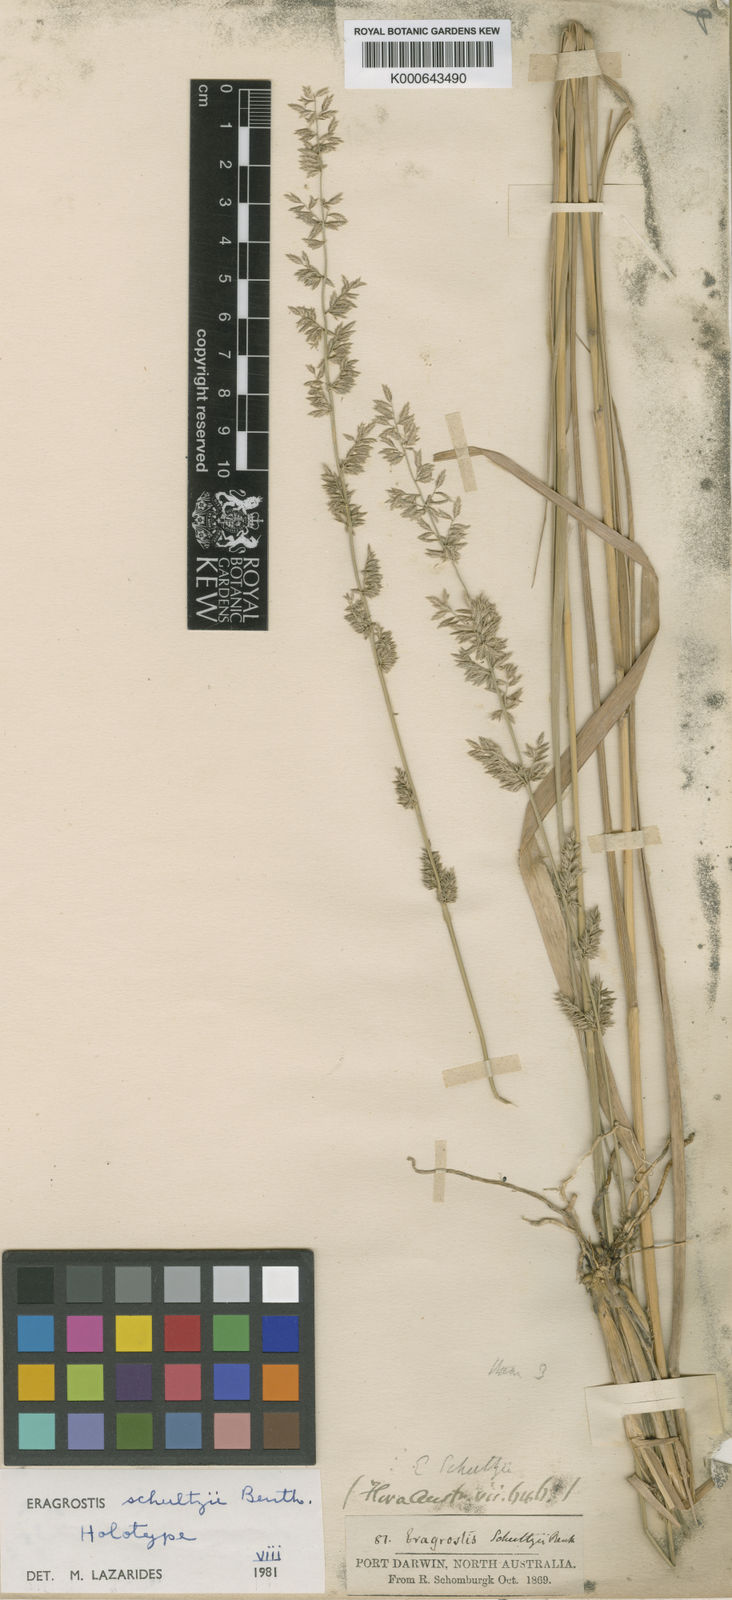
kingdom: Plantae
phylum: Tracheophyta
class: Liliopsida
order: Poales
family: Poaceae
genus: Eragrostis
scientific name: Eragrostis schultzii
